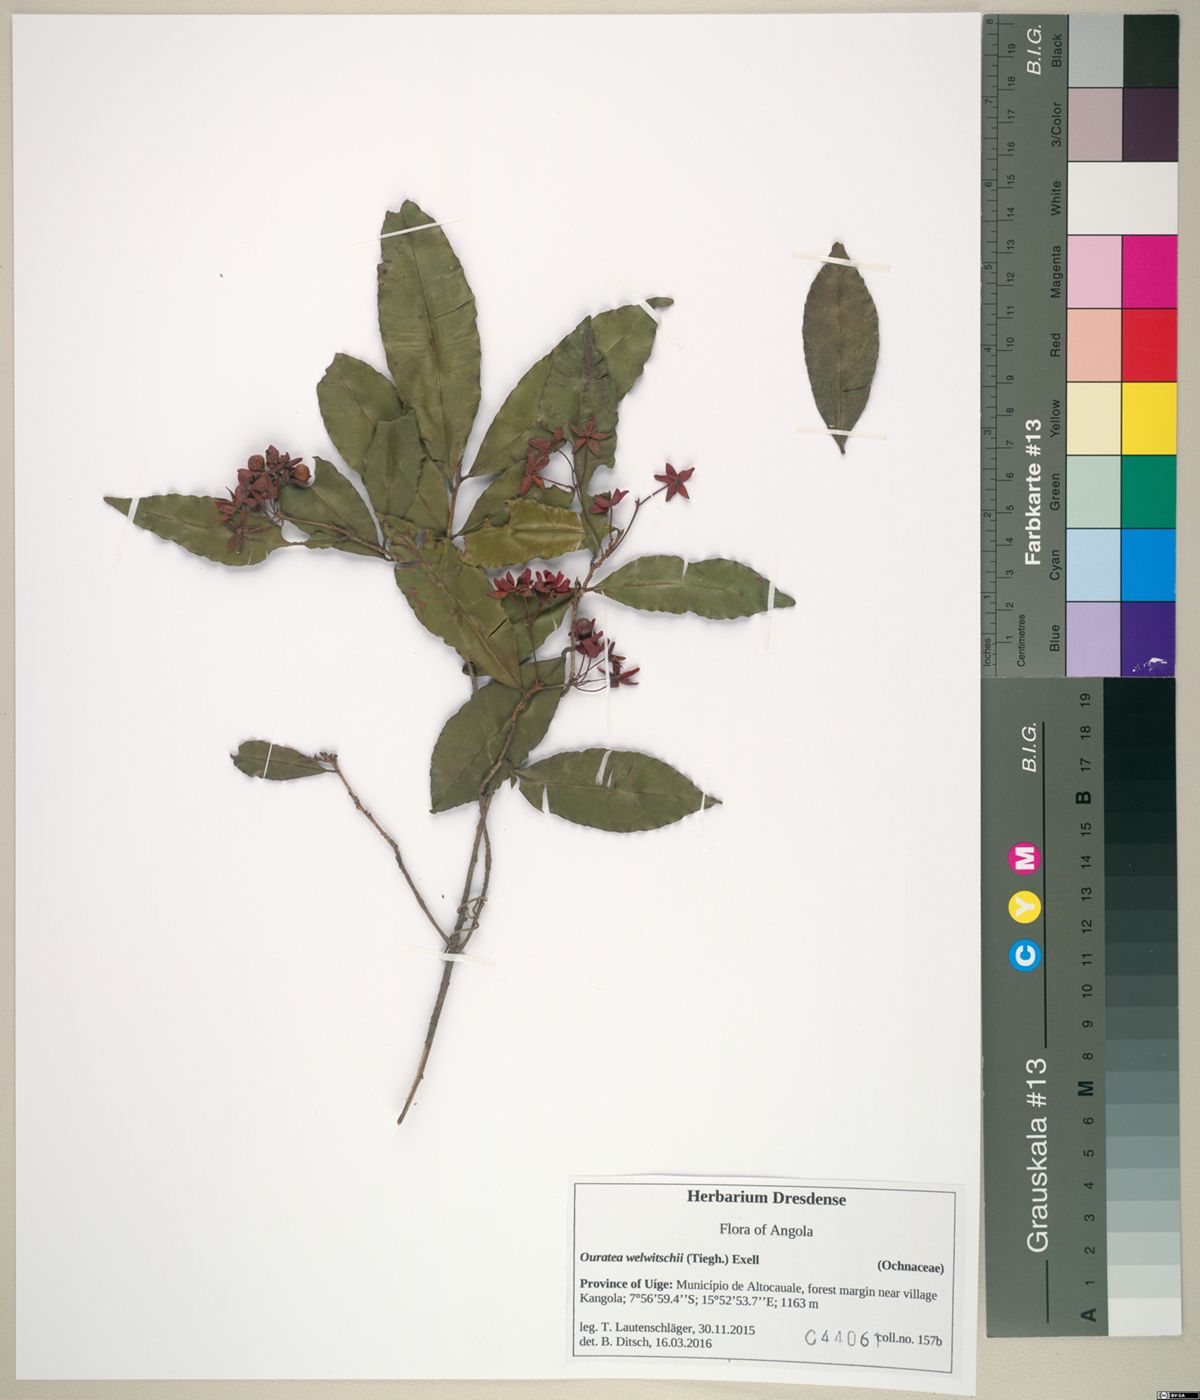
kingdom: Plantae
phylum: Tracheophyta
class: Magnoliopsida
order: Malpighiales
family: Ochnaceae
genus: Rhabdophyllum
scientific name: Rhabdophyllum welwitschii
